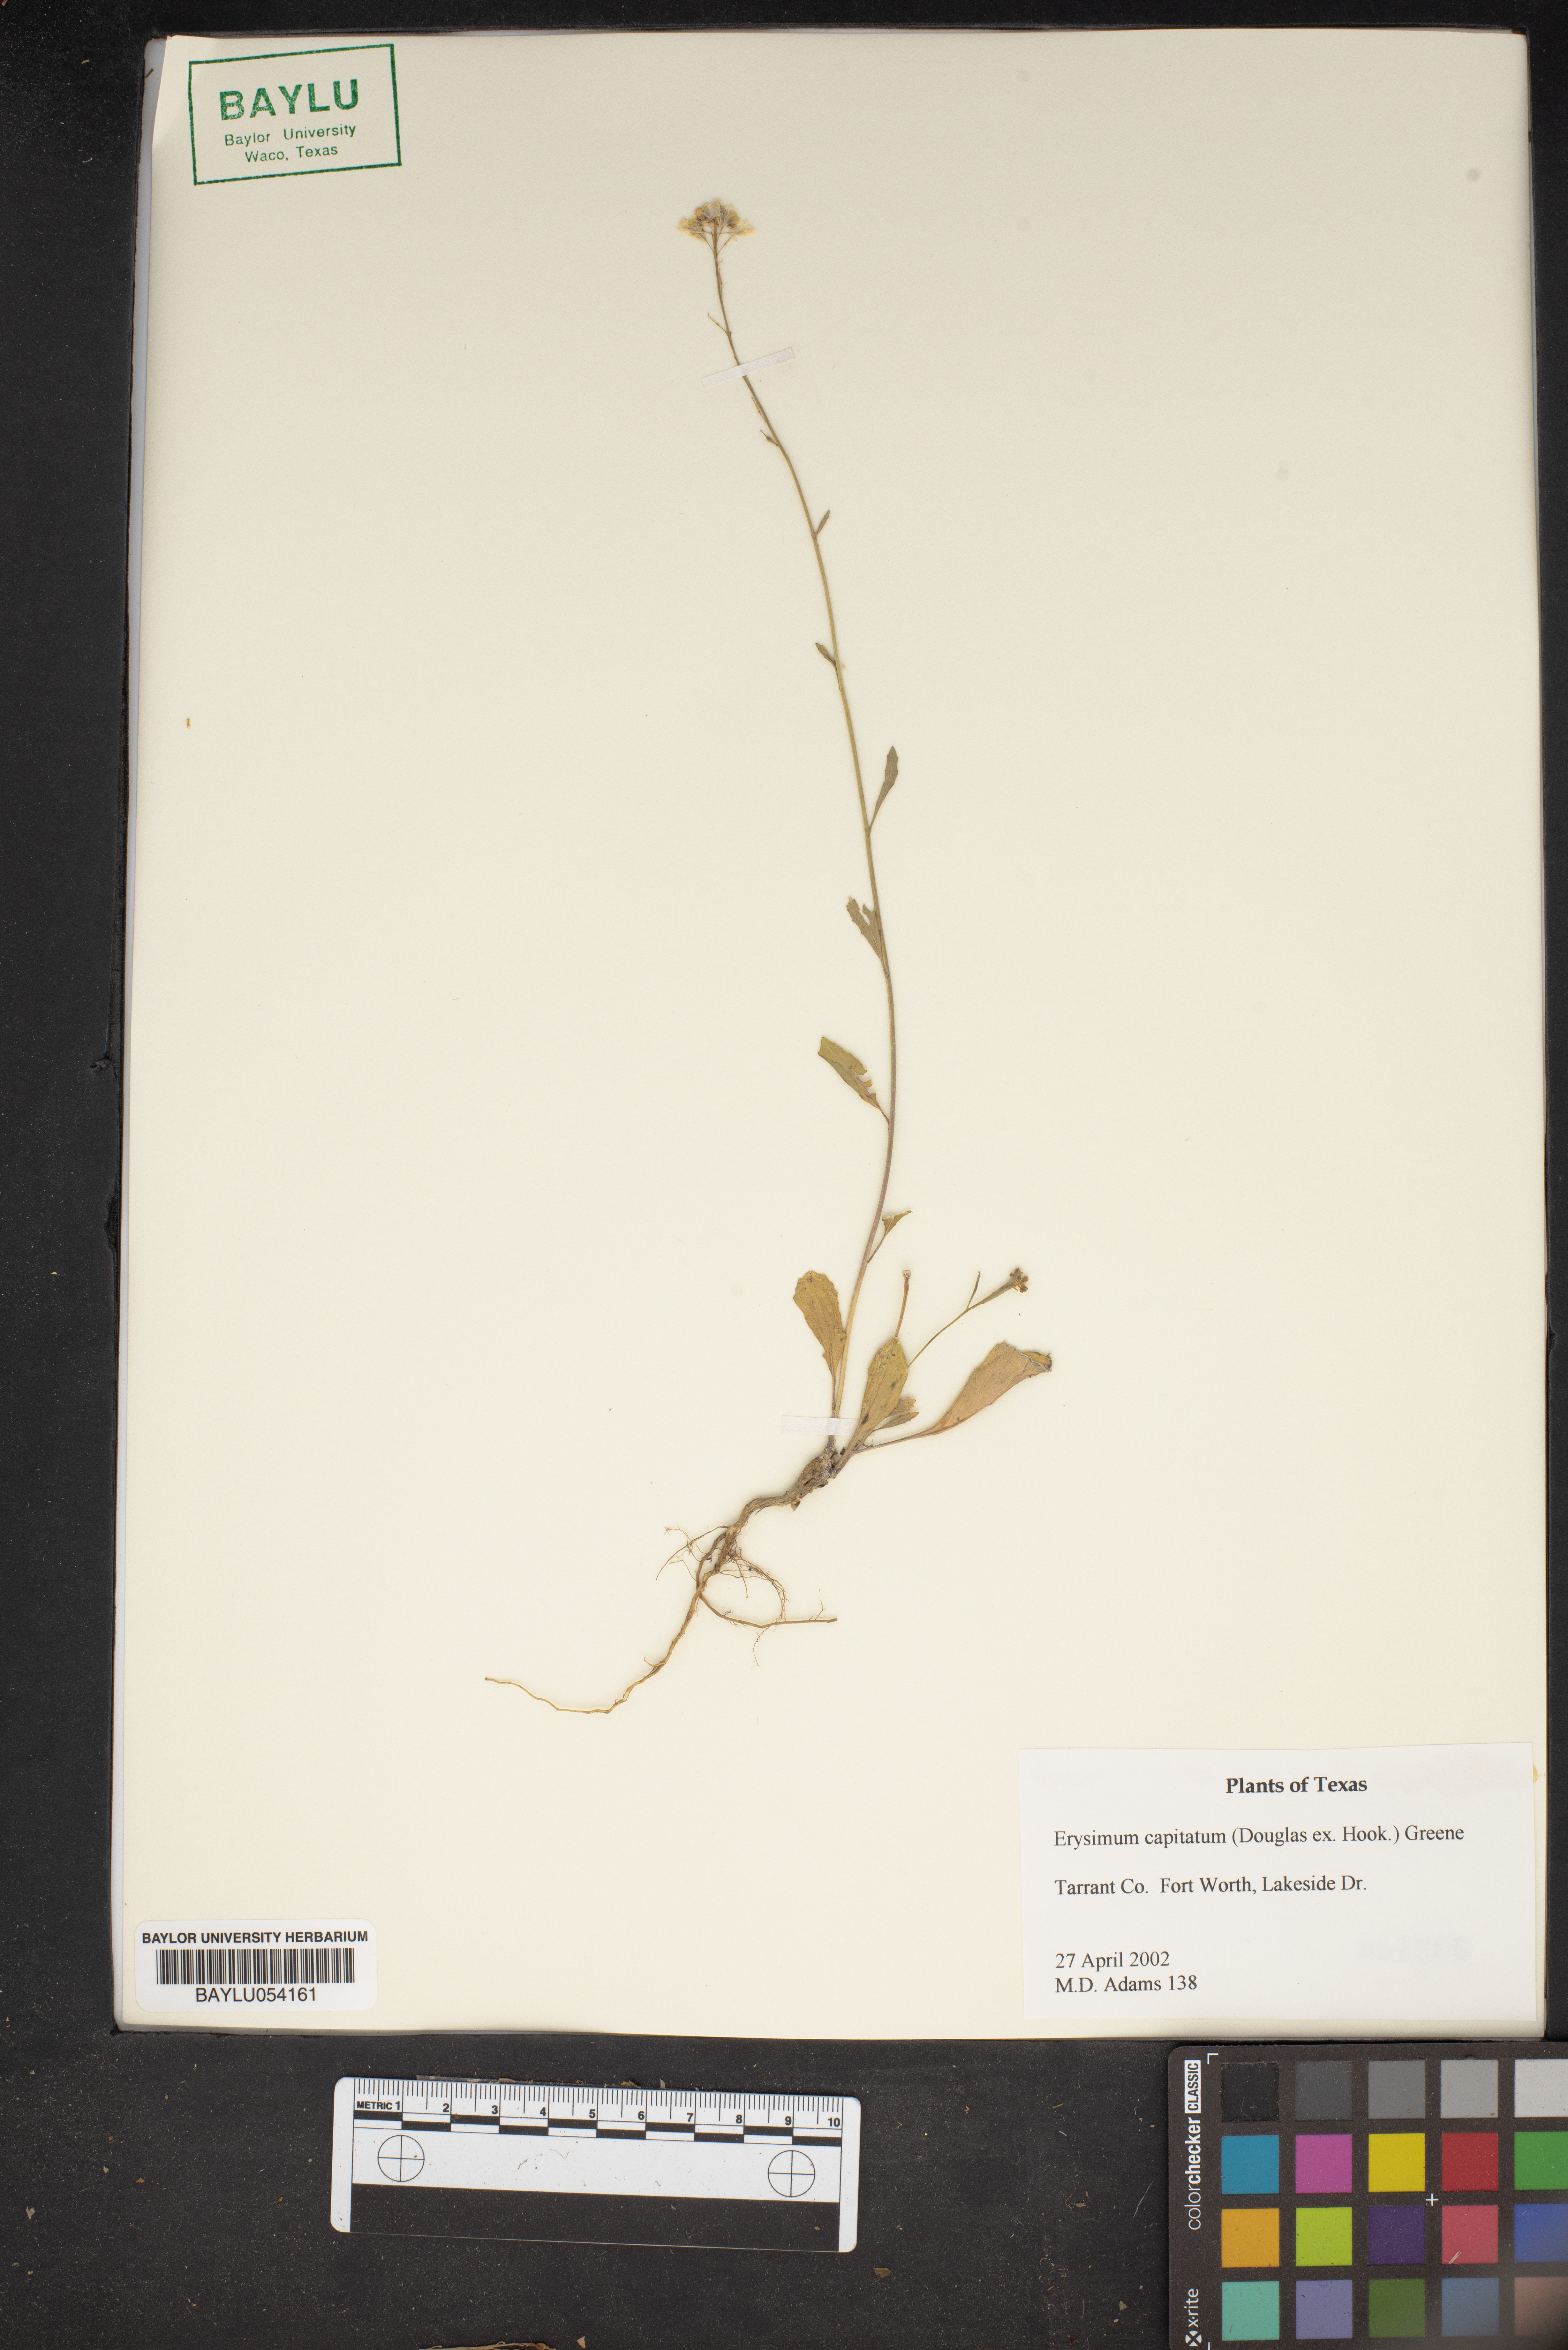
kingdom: Plantae
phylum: Tracheophyta
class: Magnoliopsida
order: Brassicales
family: Brassicaceae
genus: Erysimum
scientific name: Erysimum capitatum
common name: Western wallflower
